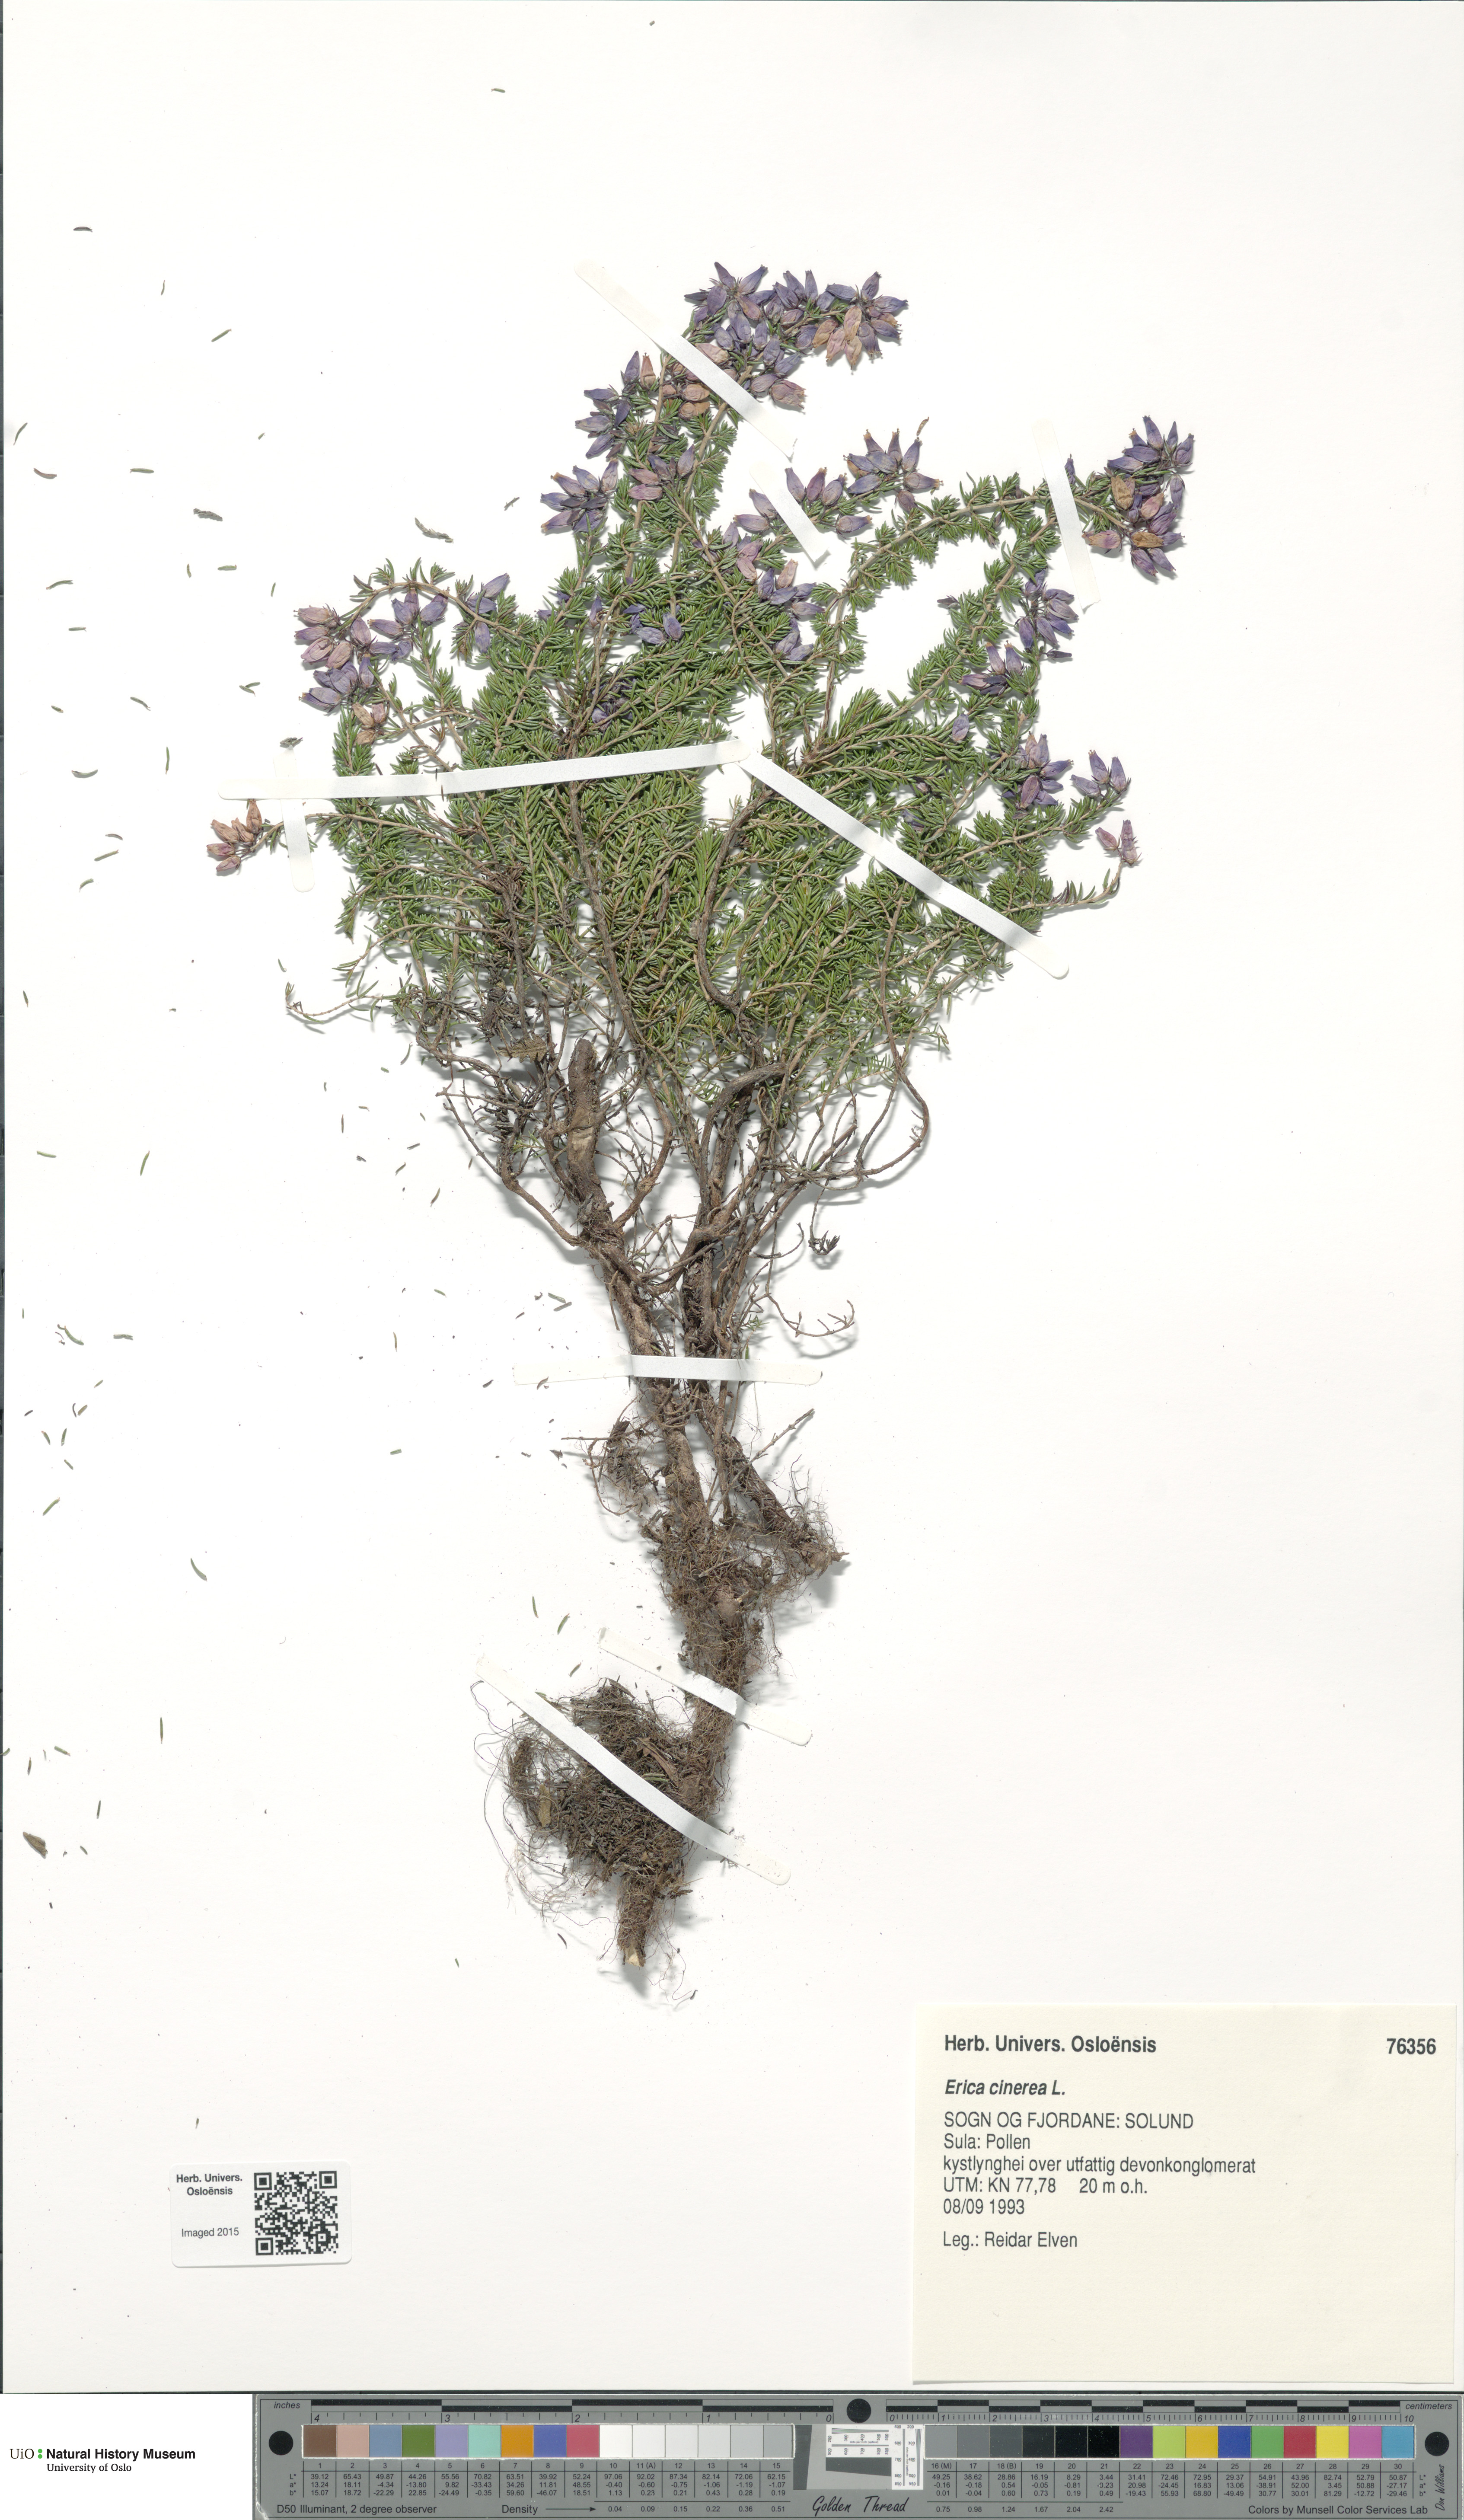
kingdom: Plantae
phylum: Tracheophyta
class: Magnoliopsida
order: Ericales
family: Ericaceae
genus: Erica
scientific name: Erica cinerea
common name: Bell heather
